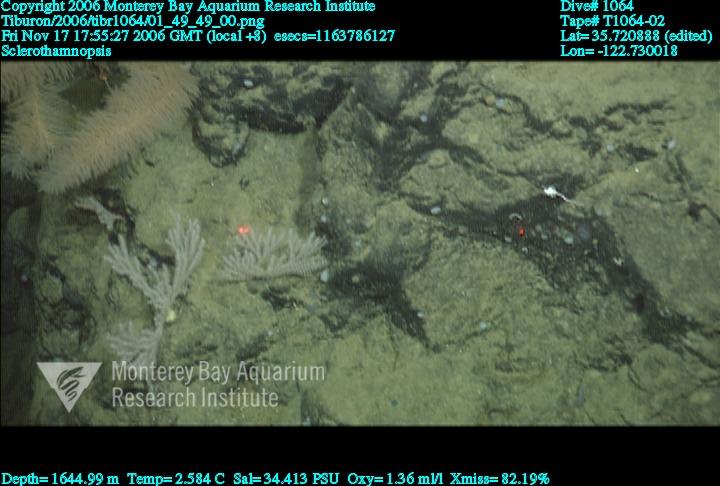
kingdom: Animalia
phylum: Porifera
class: Hexactinellida
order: Sceptrulophora
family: Tretodictyidae
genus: Sclerothamnopsis
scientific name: Sclerothamnopsis
